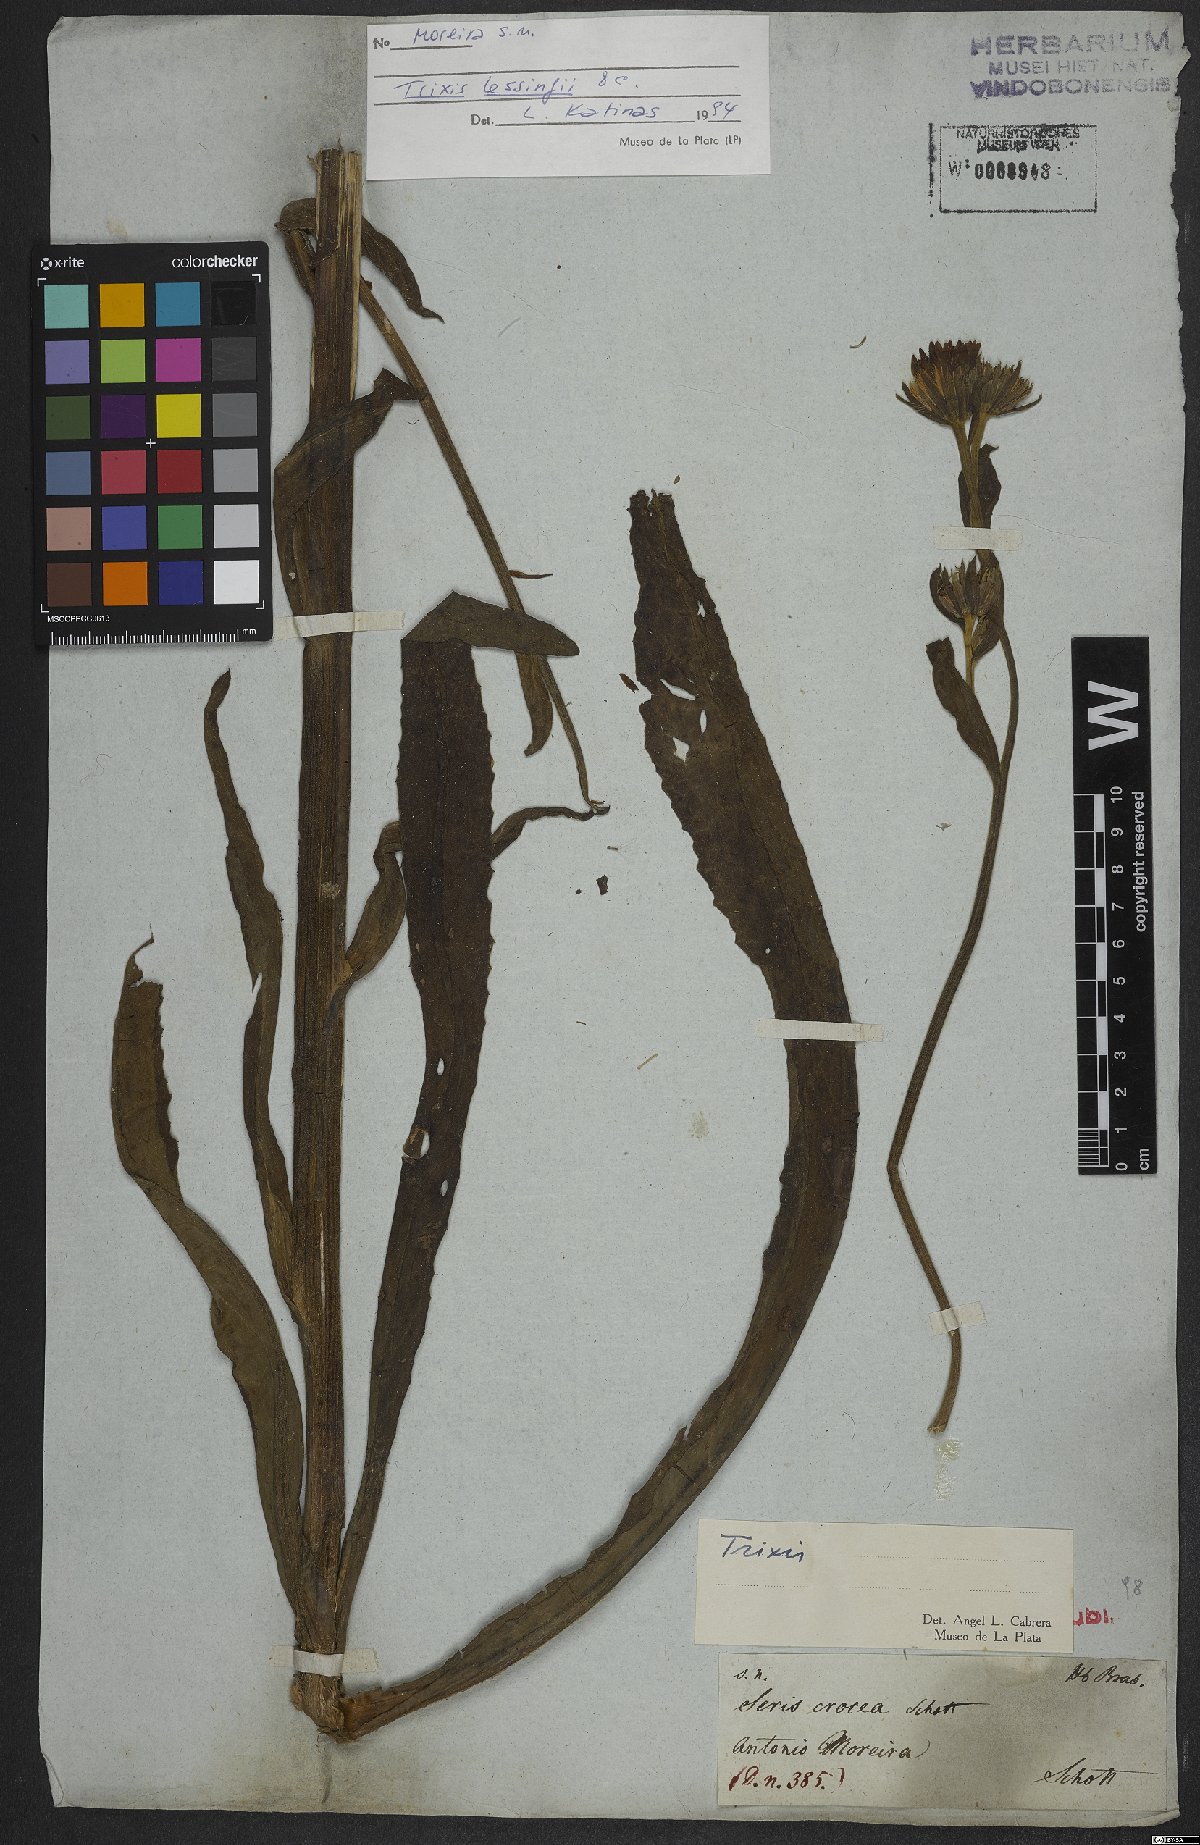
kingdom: Plantae
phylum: Tracheophyta
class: Magnoliopsida
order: Asterales
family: Asteraceae
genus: Trixis
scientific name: Trixis
